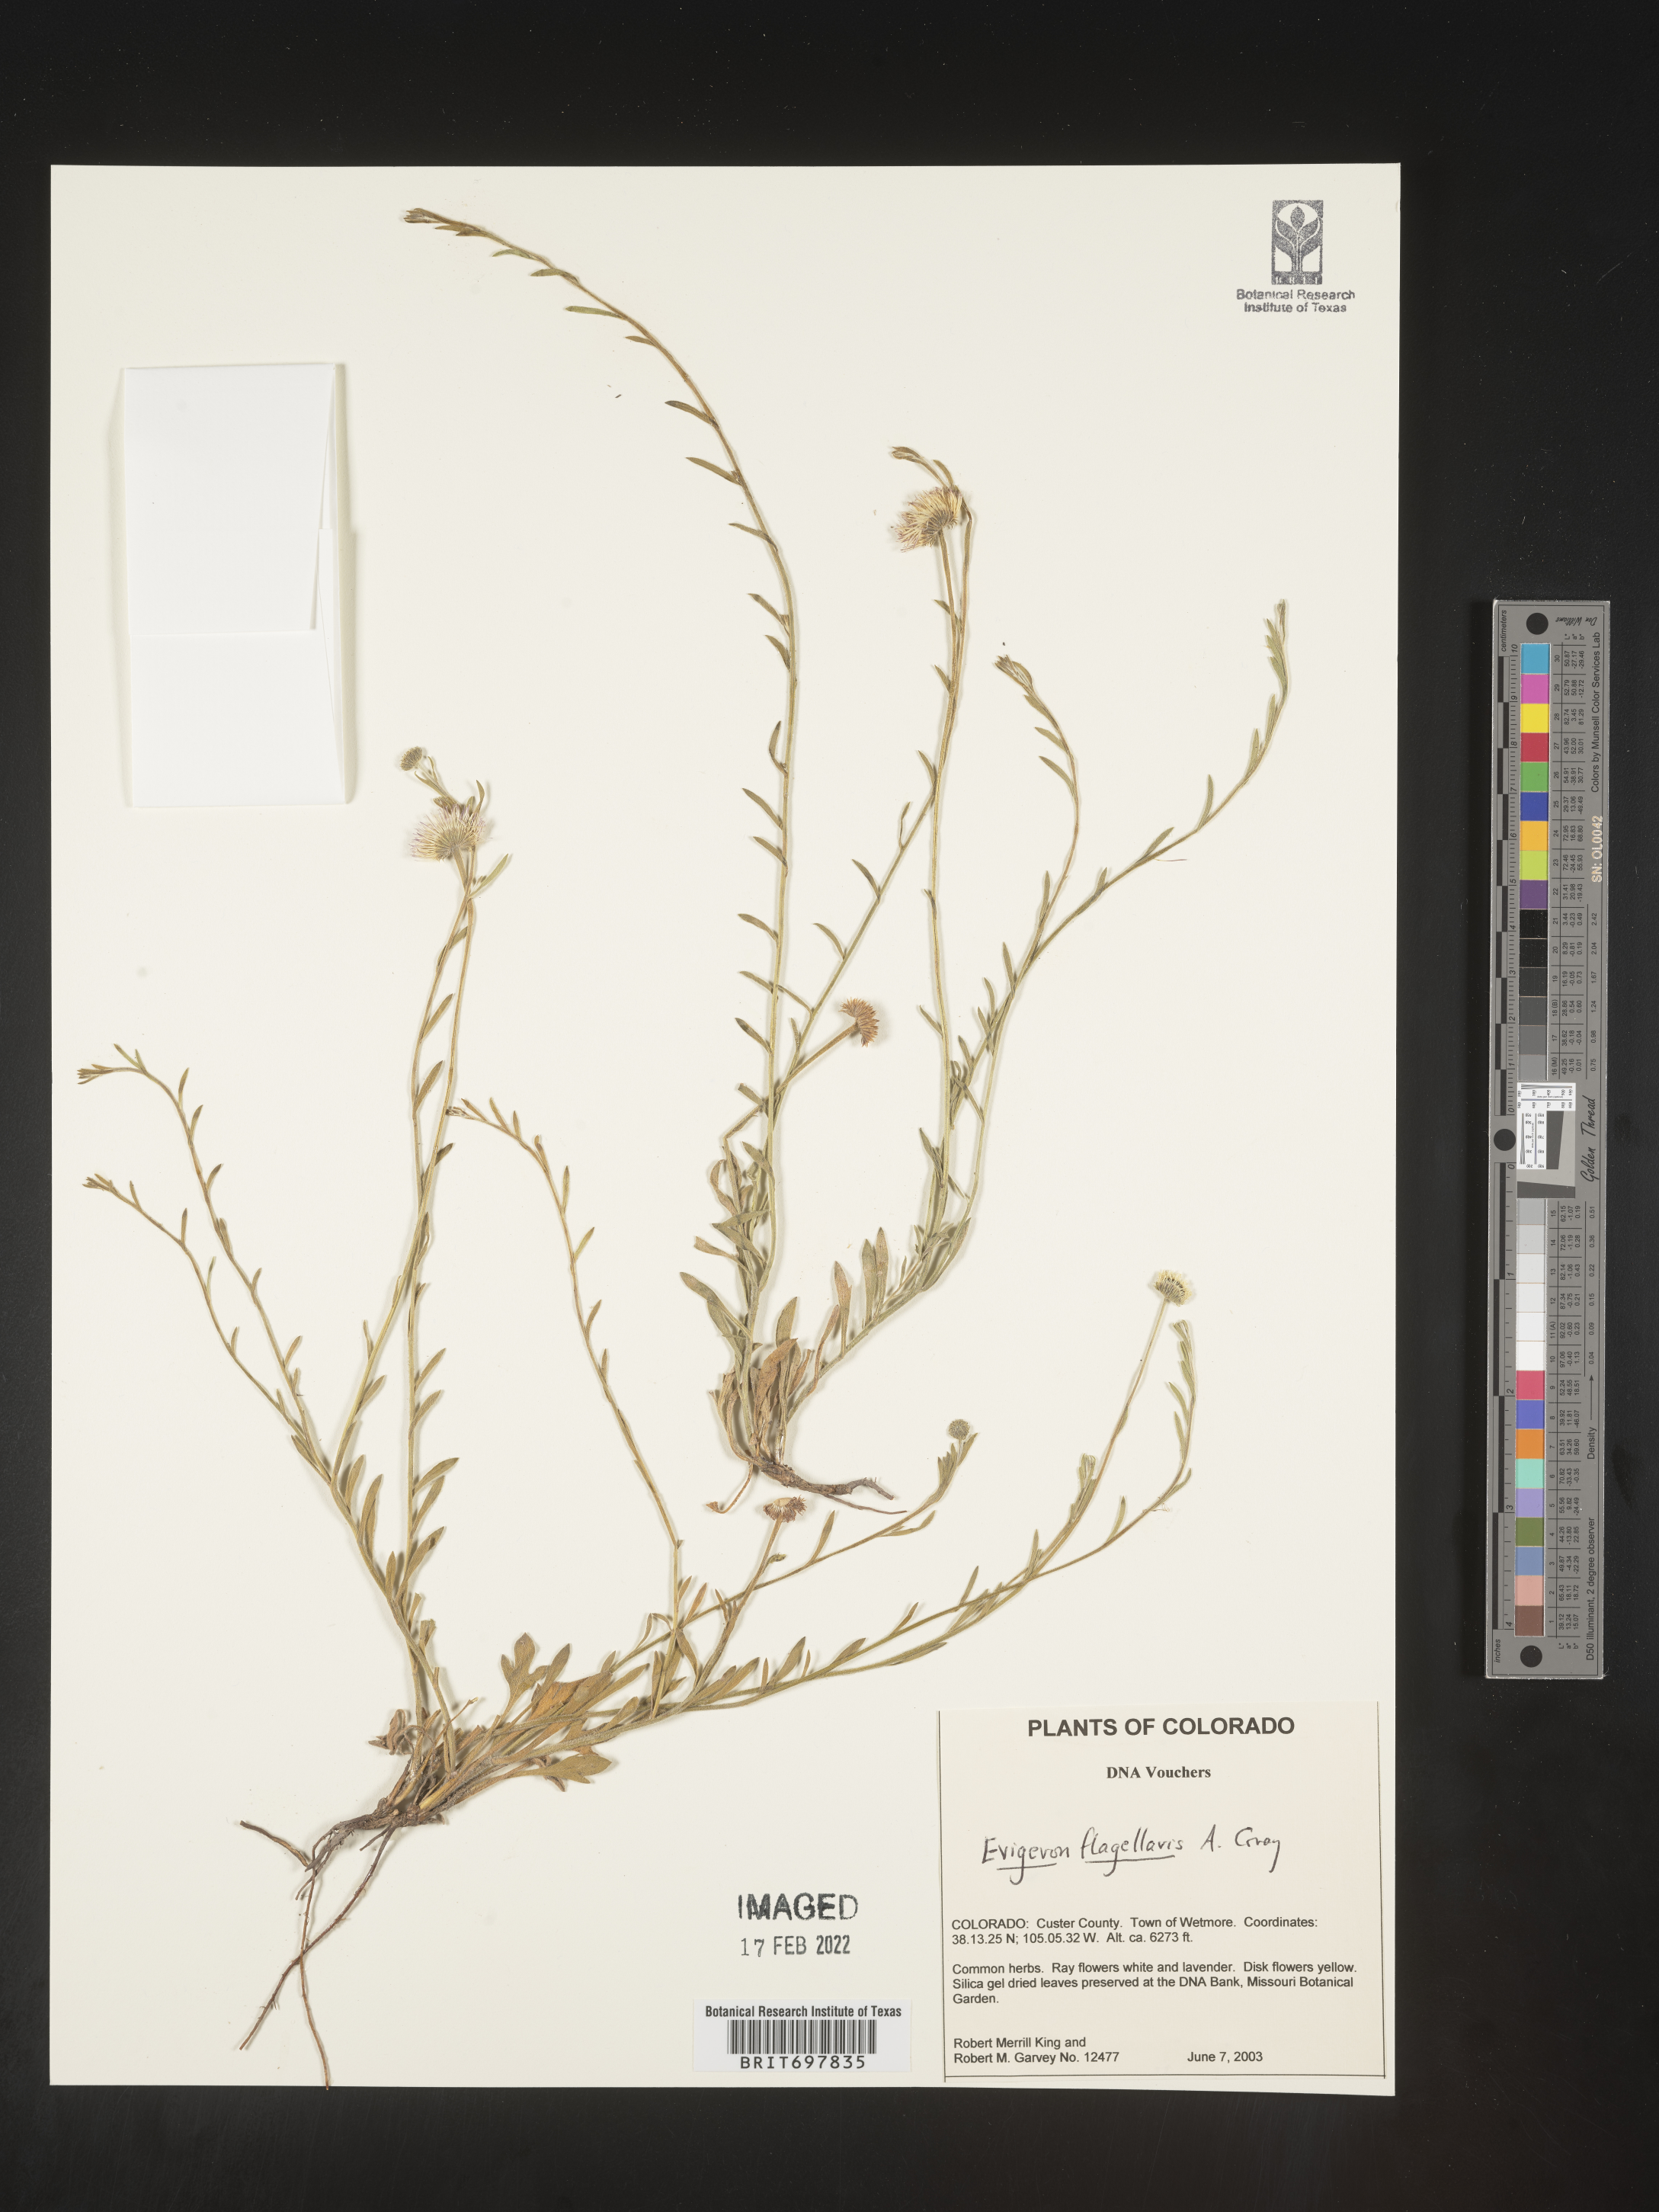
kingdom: Plantae
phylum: Tracheophyta
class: Magnoliopsida
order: Asterales
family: Asteraceae
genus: Erigeron
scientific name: Erigeron flagellaris
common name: Running fleabane
